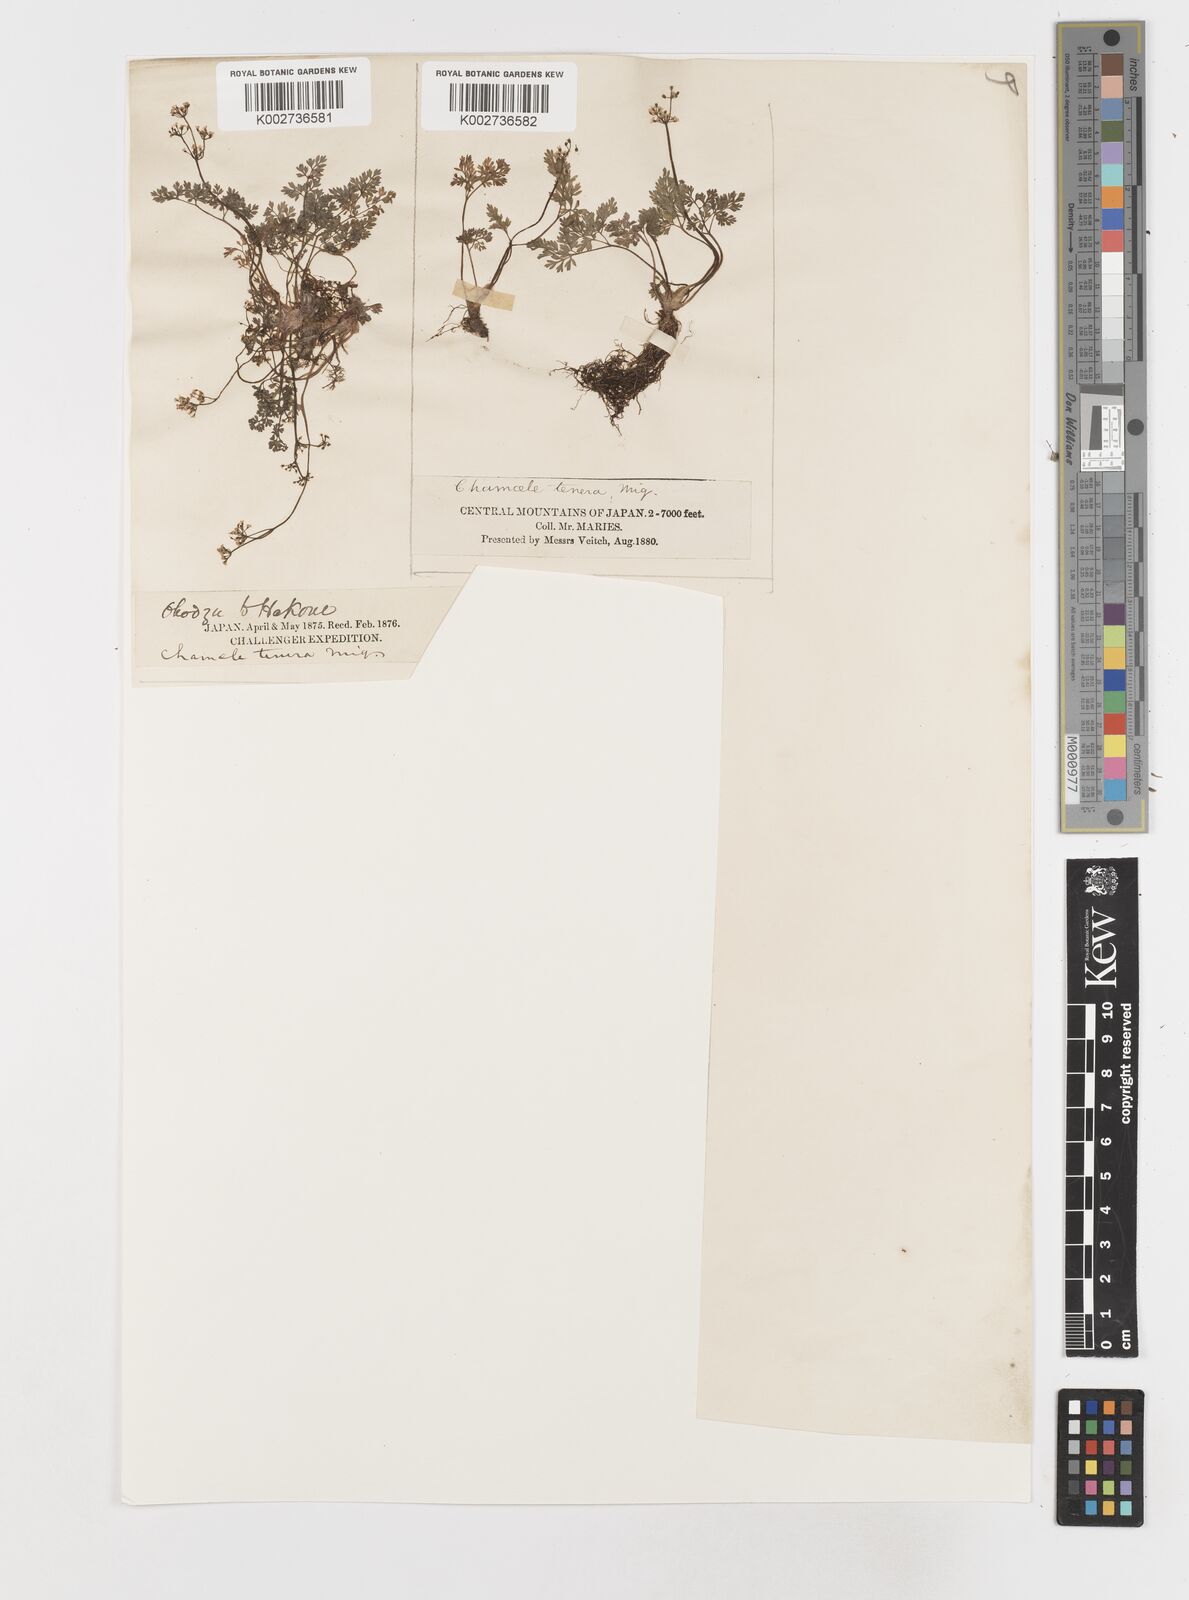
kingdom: Plantae
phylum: Tracheophyta
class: Magnoliopsida
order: Apiales
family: Apiaceae
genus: Aegopodium
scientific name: Aegopodium decumbens
